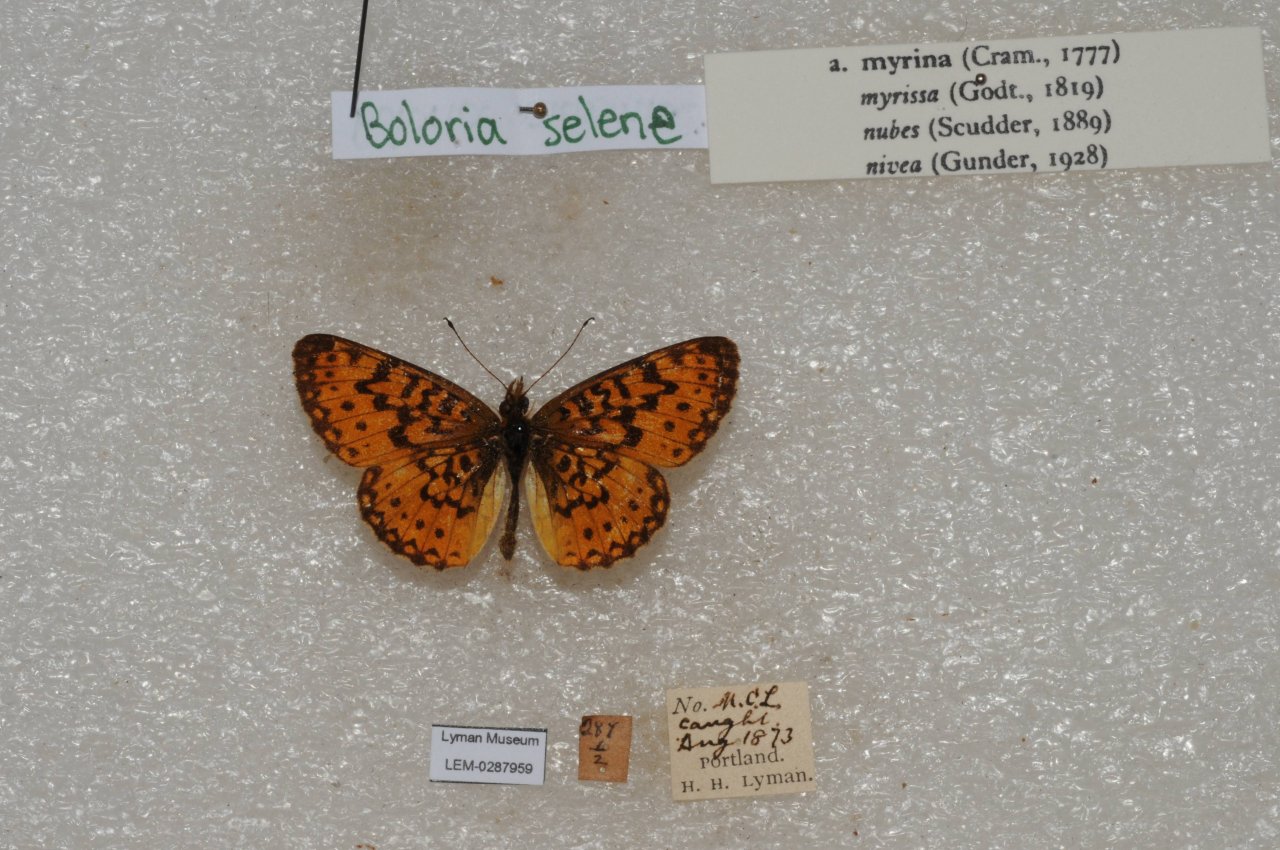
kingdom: Animalia
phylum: Arthropoda
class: Insecta
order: Lepidoptera
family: Nymphalidae
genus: Boloria
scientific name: Boloria selene
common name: Silver-bordered Fritillary
